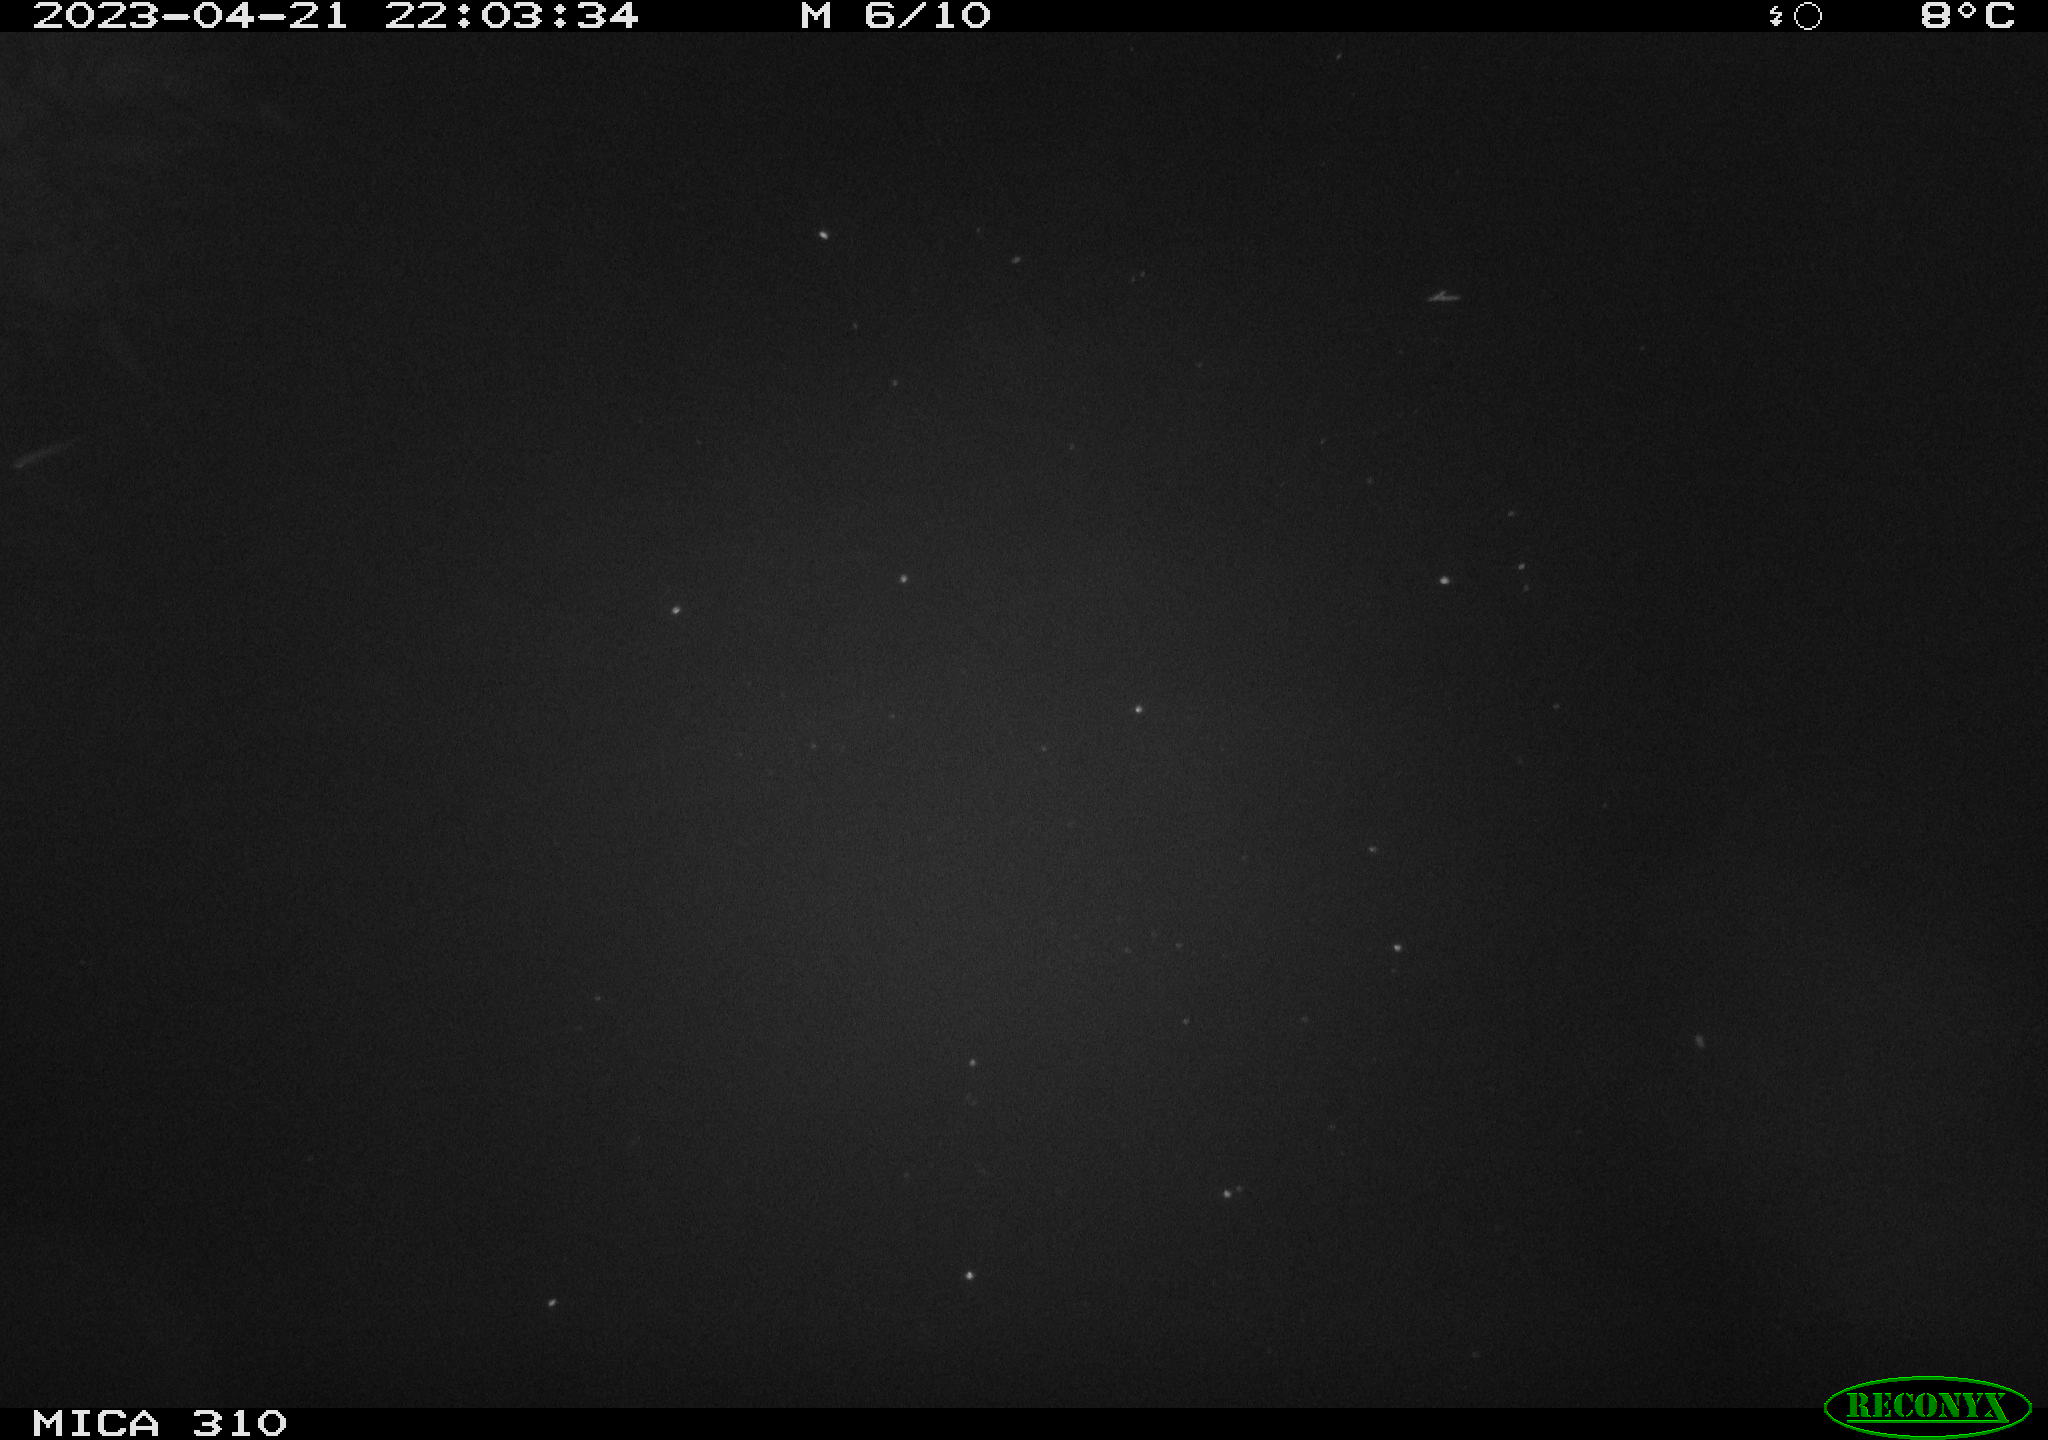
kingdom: Animalia
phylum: Chordata
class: Aves
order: Anseriformes
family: Anatidae
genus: Anas
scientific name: Anas
